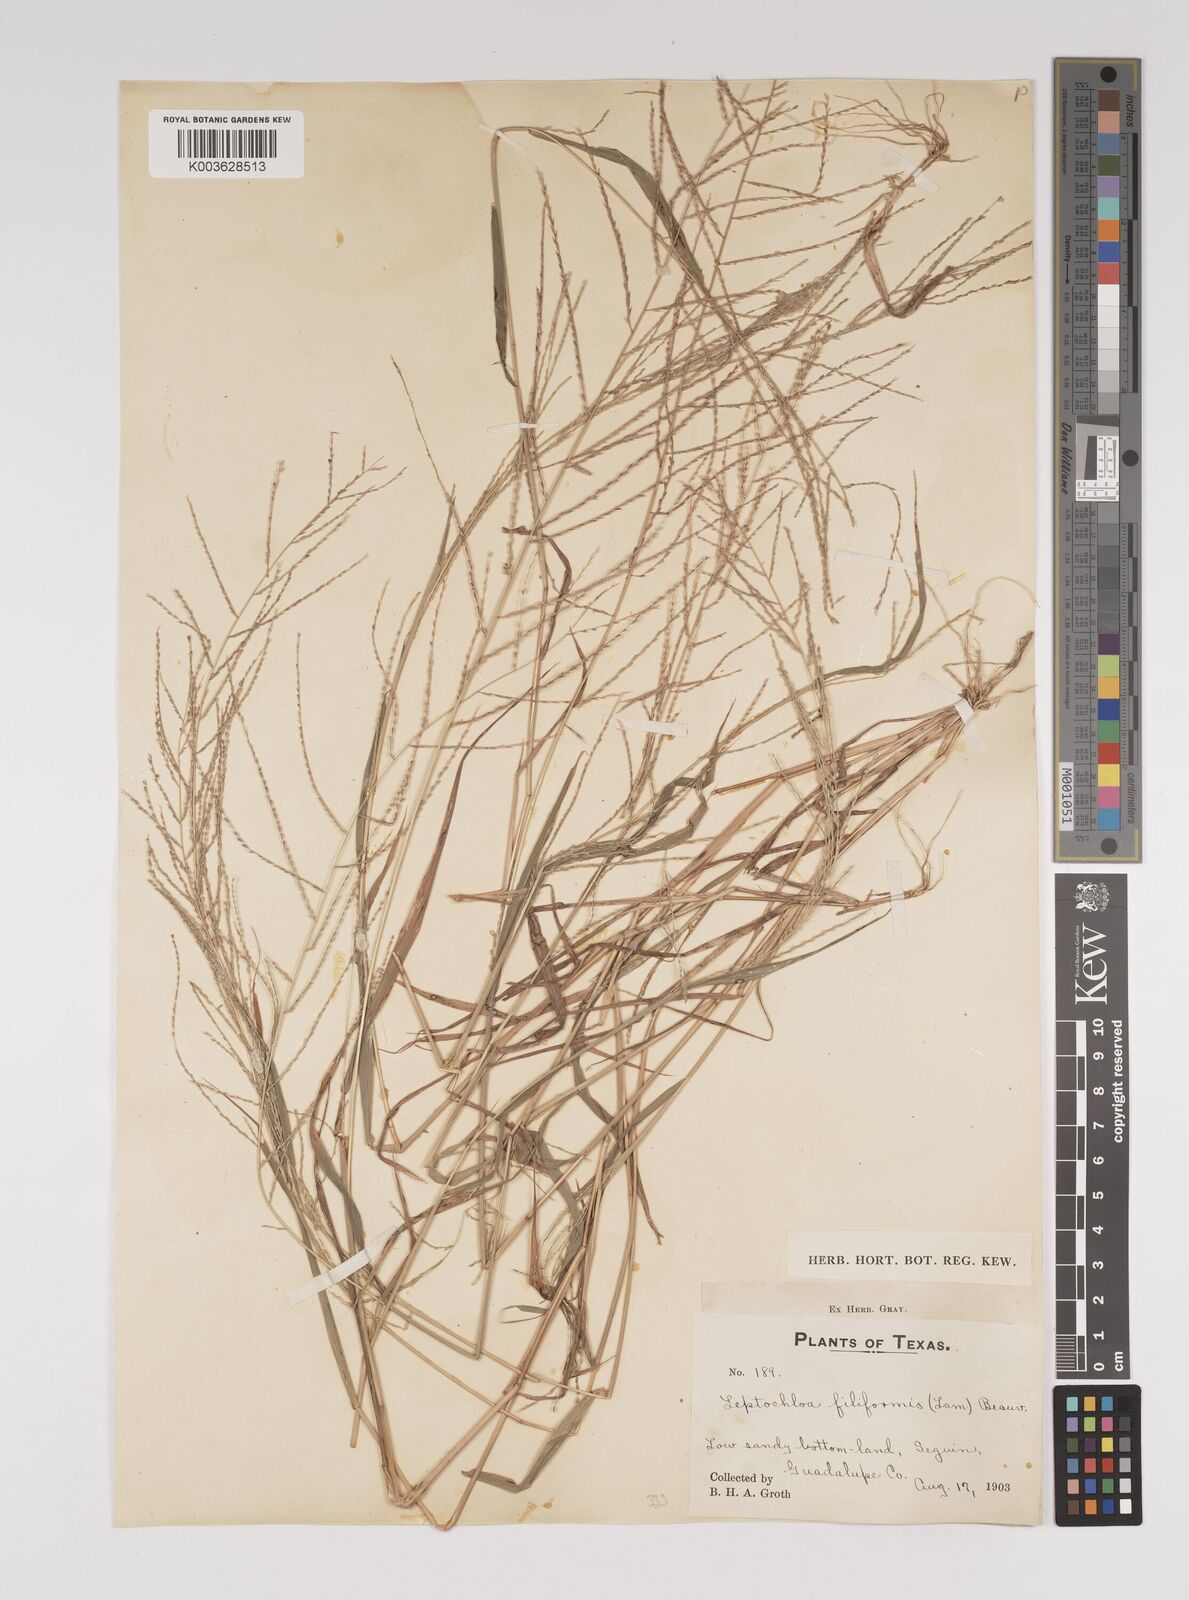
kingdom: Plantae
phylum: Tracheophyta
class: Liliopsida
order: Poales
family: Poaceae
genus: Leptochloa
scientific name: Leptochloa panicea
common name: Mucronate sprangletop
